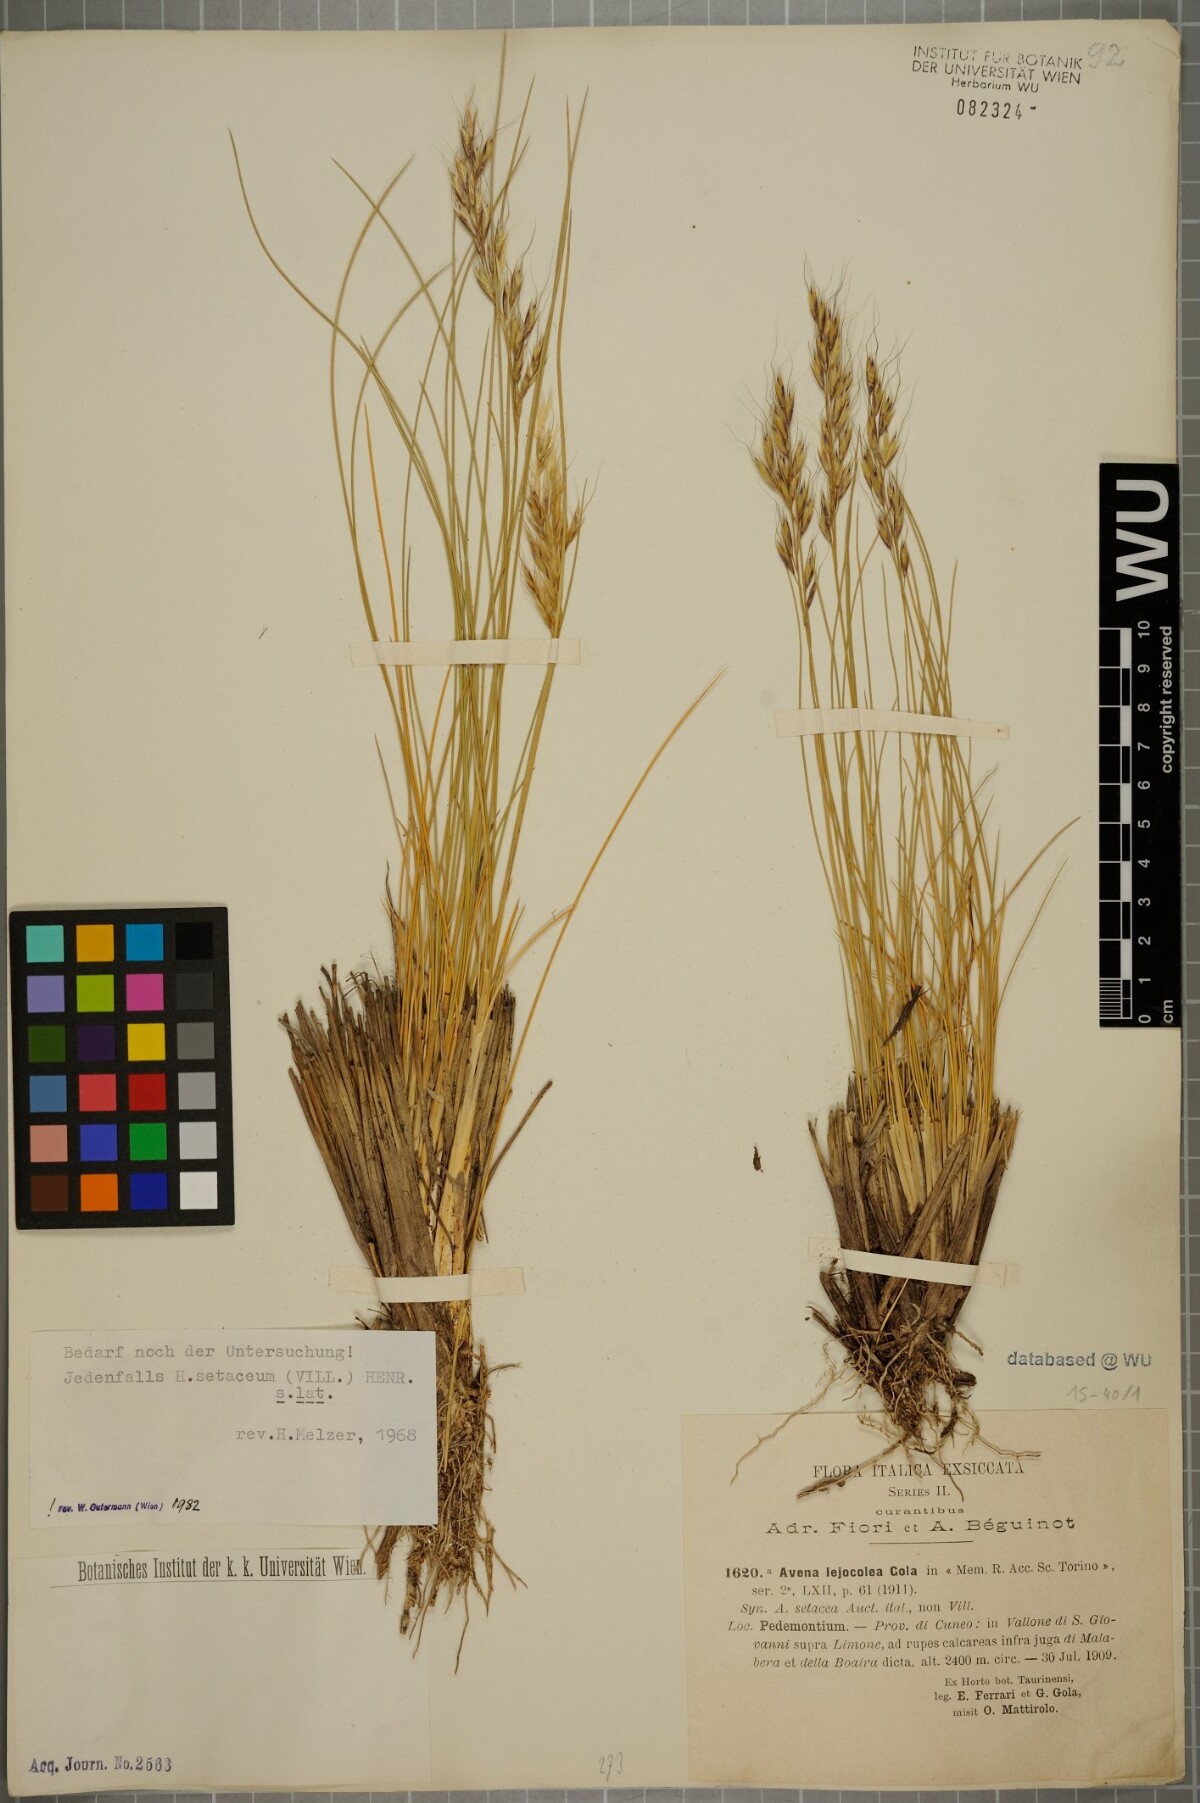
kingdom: Plantae
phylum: Tracheophyta
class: Liliopsida
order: Poales
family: Poaceae
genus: Helictotrichon
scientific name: Helictotrichon setaceum
